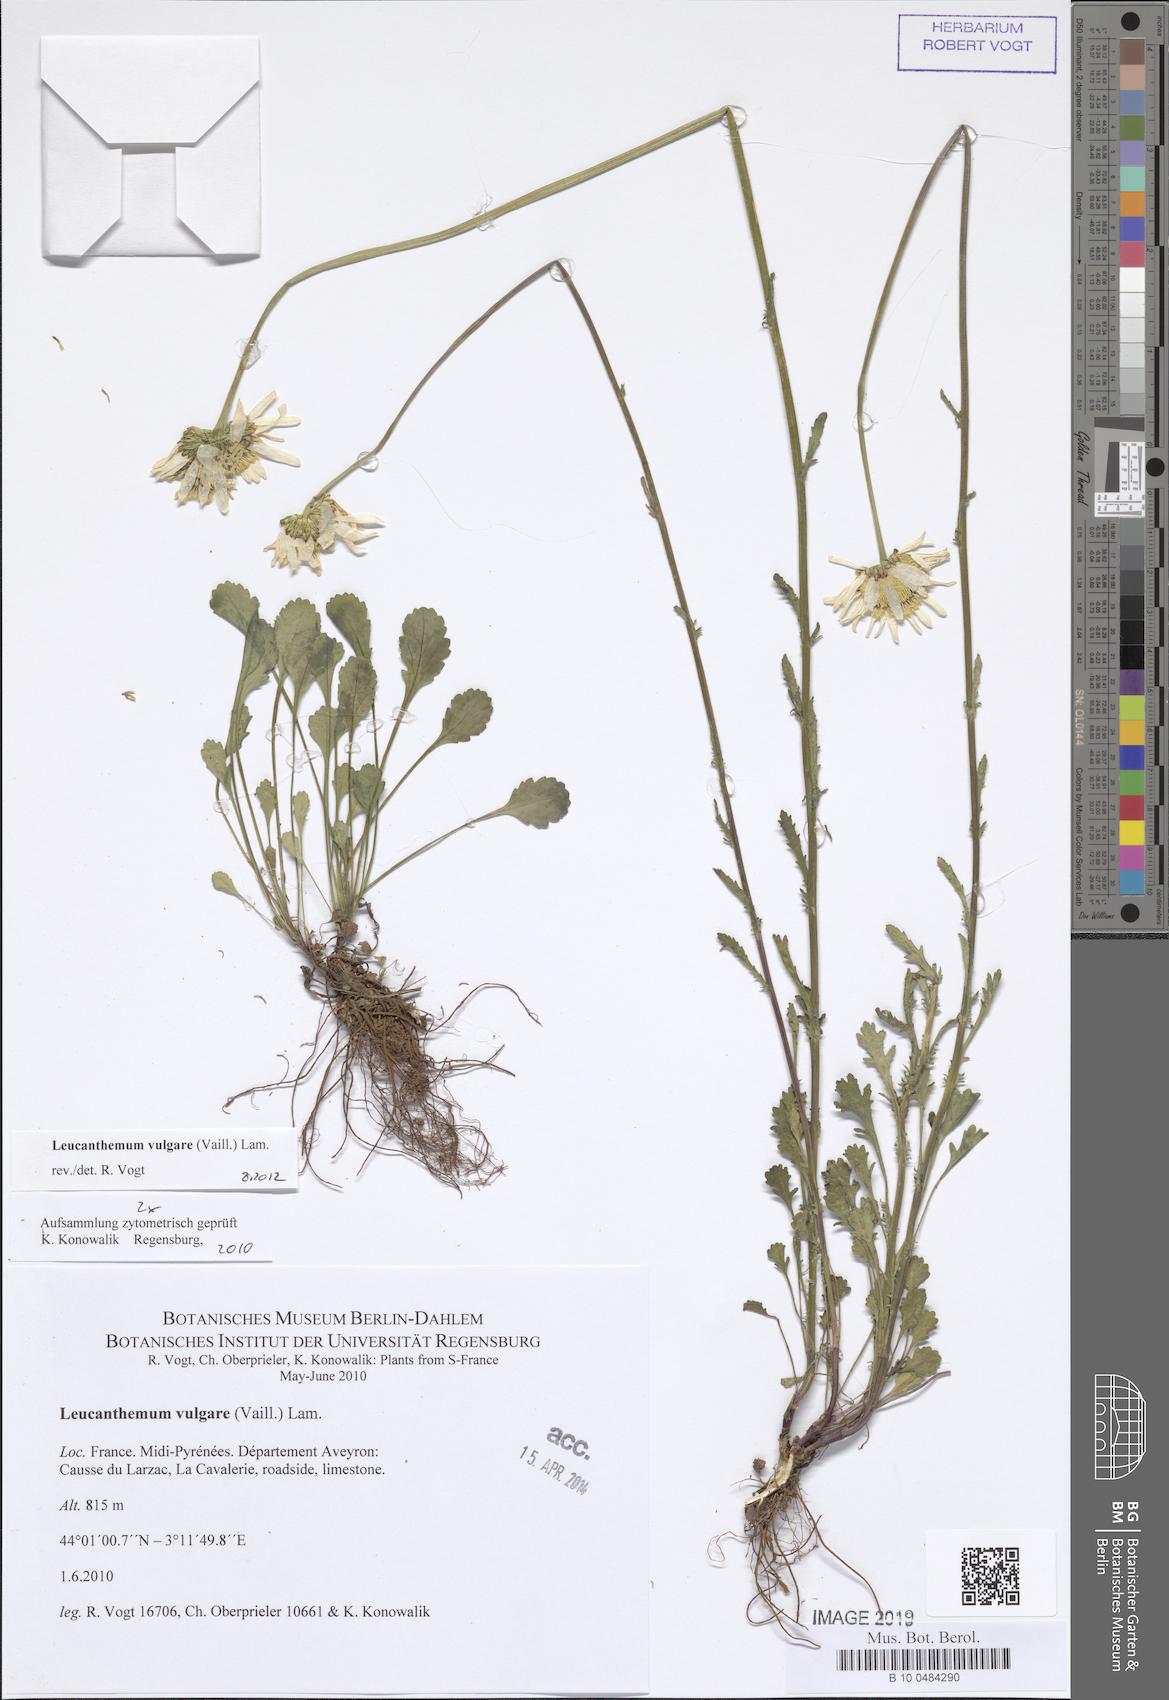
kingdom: Plantae
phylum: Tracheophyta
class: Magnoliopsida
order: Asterales
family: Asteraceae
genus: Leucanthemum
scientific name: Leucanthemum vulgare
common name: Oxeye daisy
